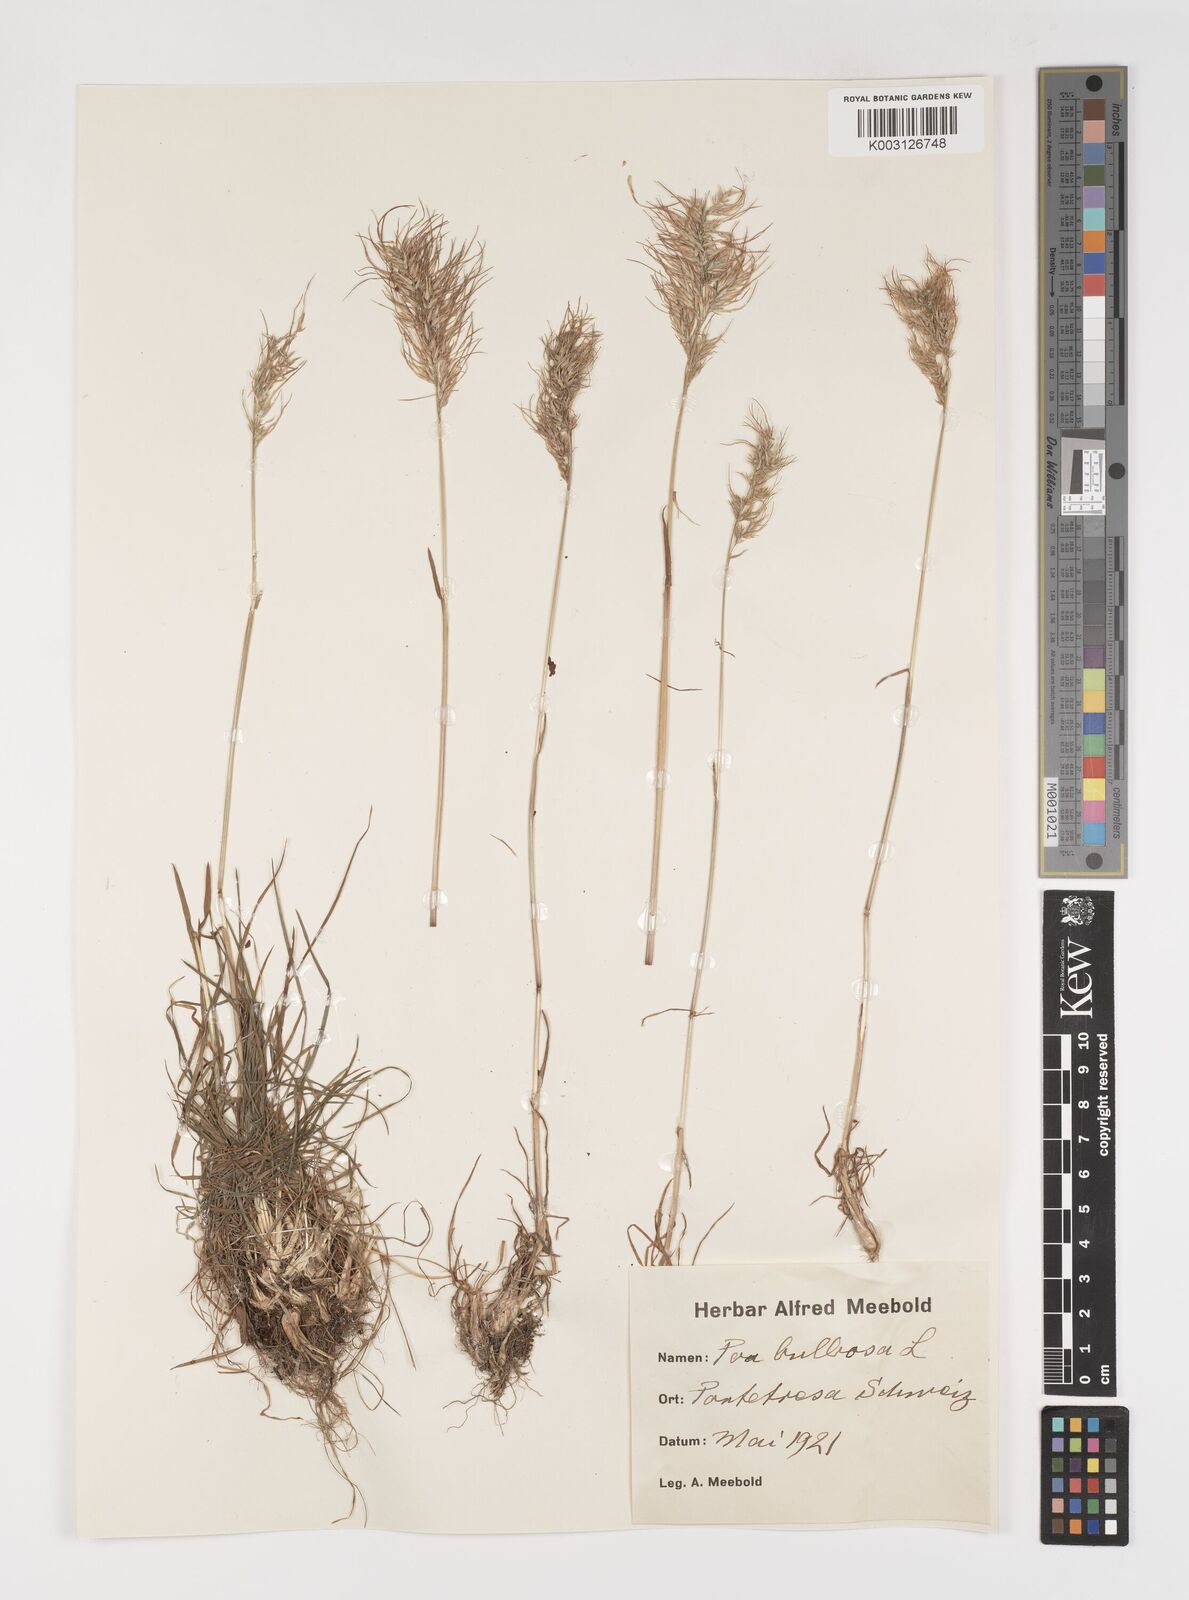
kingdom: Plantae
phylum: Tracheophyta
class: Liliopsida
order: Poales
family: Poaceae
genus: Poa
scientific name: Poa bulbosa
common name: Bulbous bluegrass
